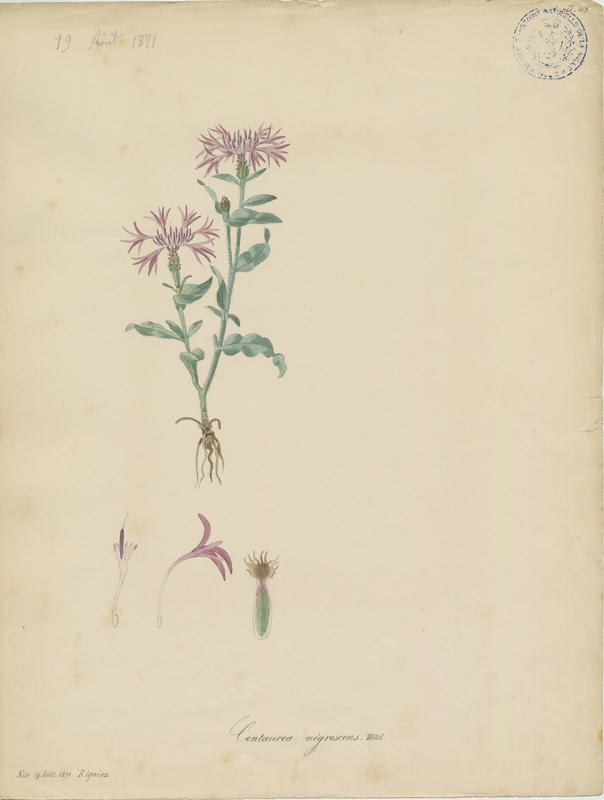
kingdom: Plantae
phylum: Tracheophyta
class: Magnoliopsida
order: Asterales
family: Asteraceae
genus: Centaurea
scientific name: Centaurea nigrescens
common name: Tyrol knapweed
